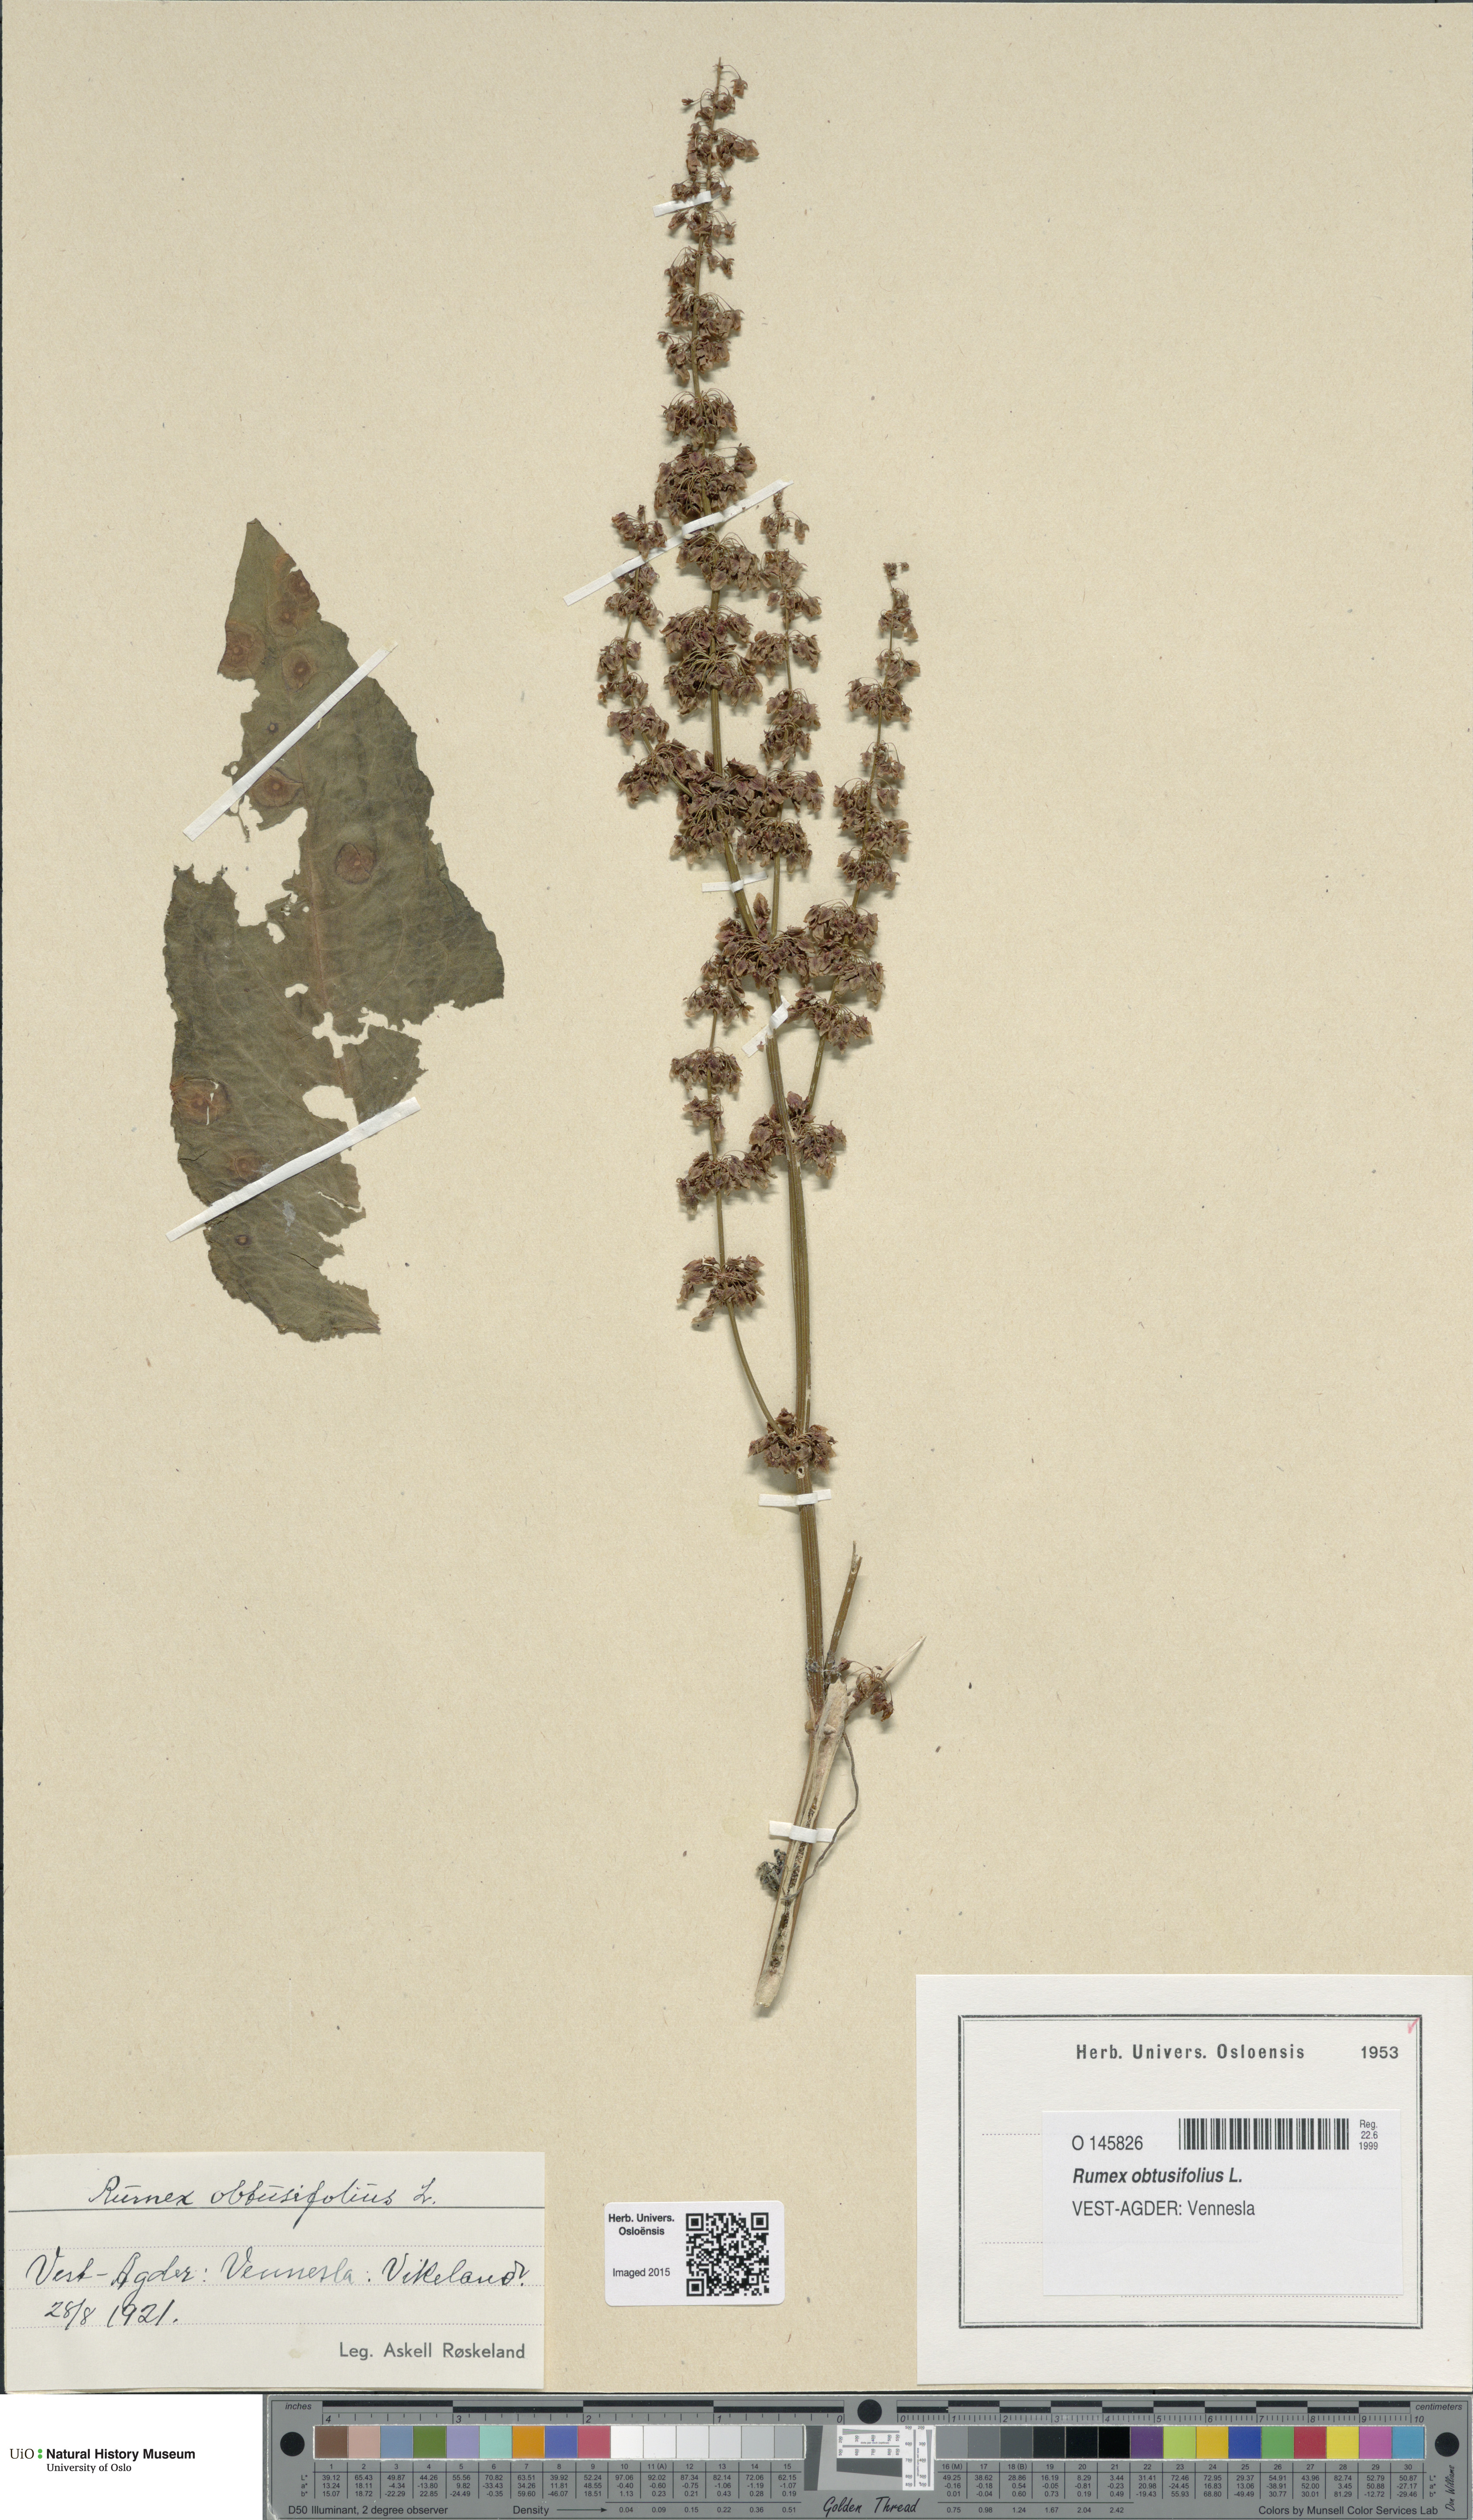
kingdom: Plantae
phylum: Tracheophyta
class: Magnoliopsida
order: Caryophyllales
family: Polygonaceae
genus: Rumex
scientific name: Rumex obtusifolius
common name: Bitter dock
